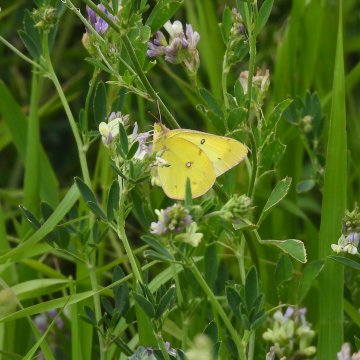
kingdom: Animalia
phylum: Arthropoda
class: Insecta
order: Lepidoptera
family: Pieridae
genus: Colias
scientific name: Colias philodice
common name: Clouded Sulphur
